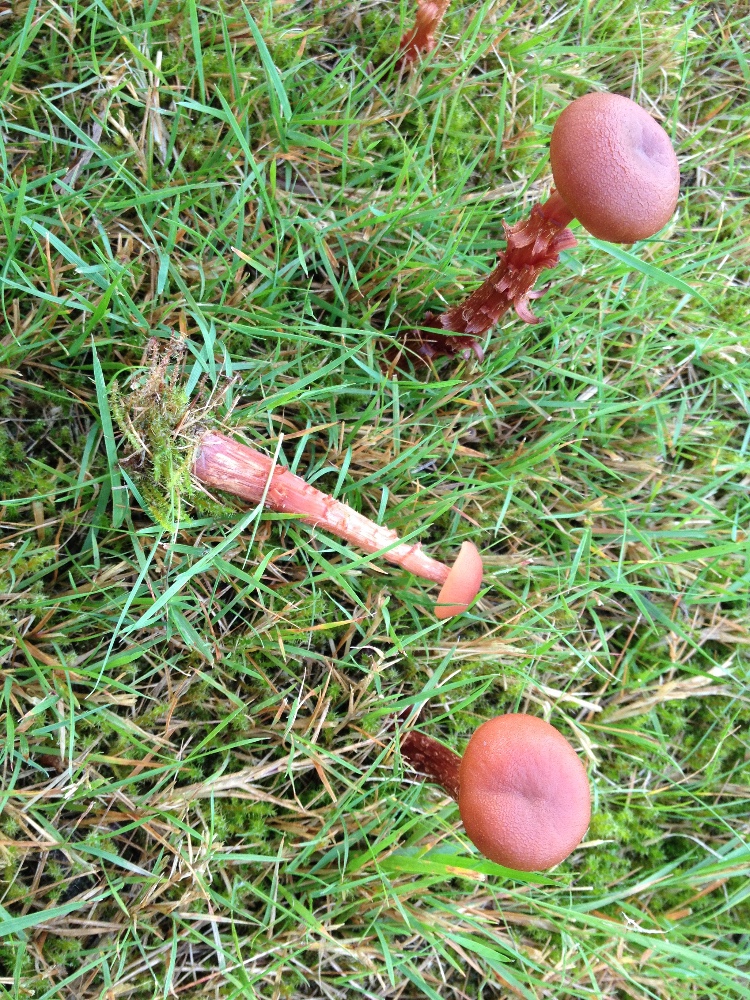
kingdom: Fungi
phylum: Basidiomycota
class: Agaricomycetes
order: Agaricales
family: Hydnangiaceae
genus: Laccaria
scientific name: Laccaria laccata
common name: rød ametysthat
